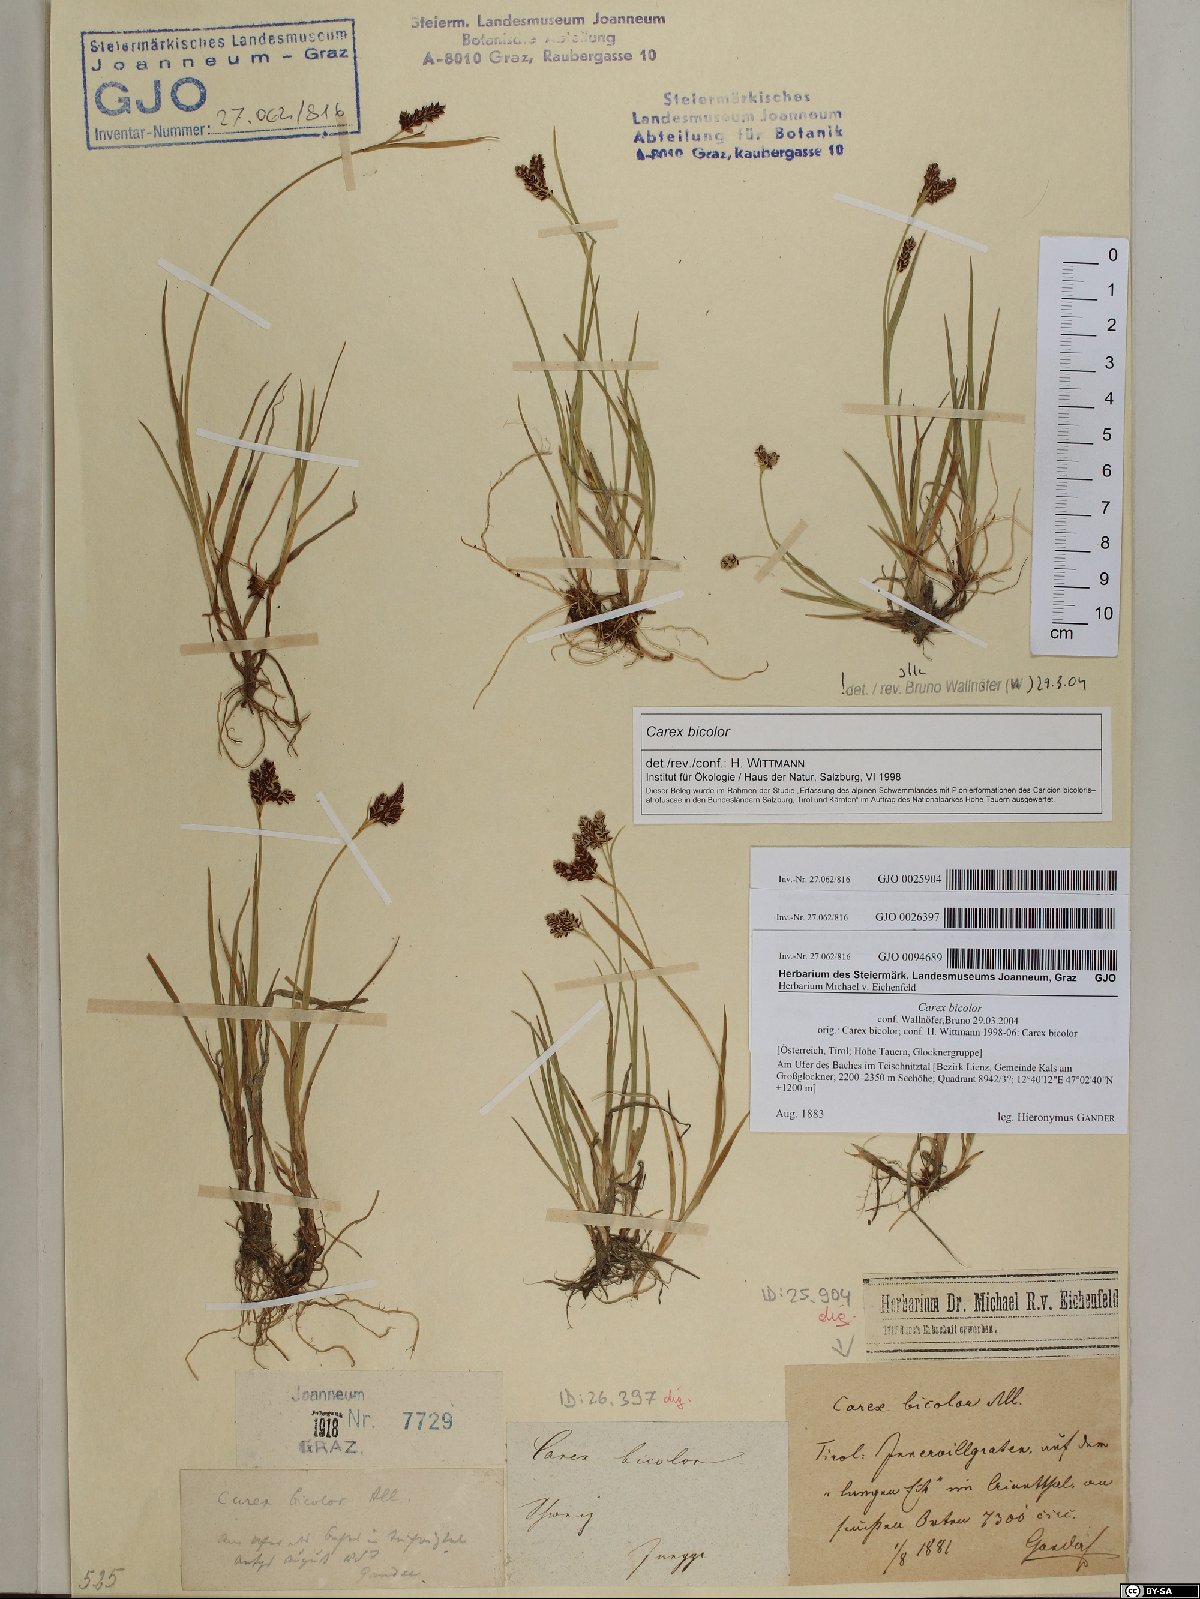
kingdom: Plantae
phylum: Tracheophyta
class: Liliopsida
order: Poales
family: Cyperaceae
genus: Carex
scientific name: Carex bicolor
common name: Bicoloured sedge
